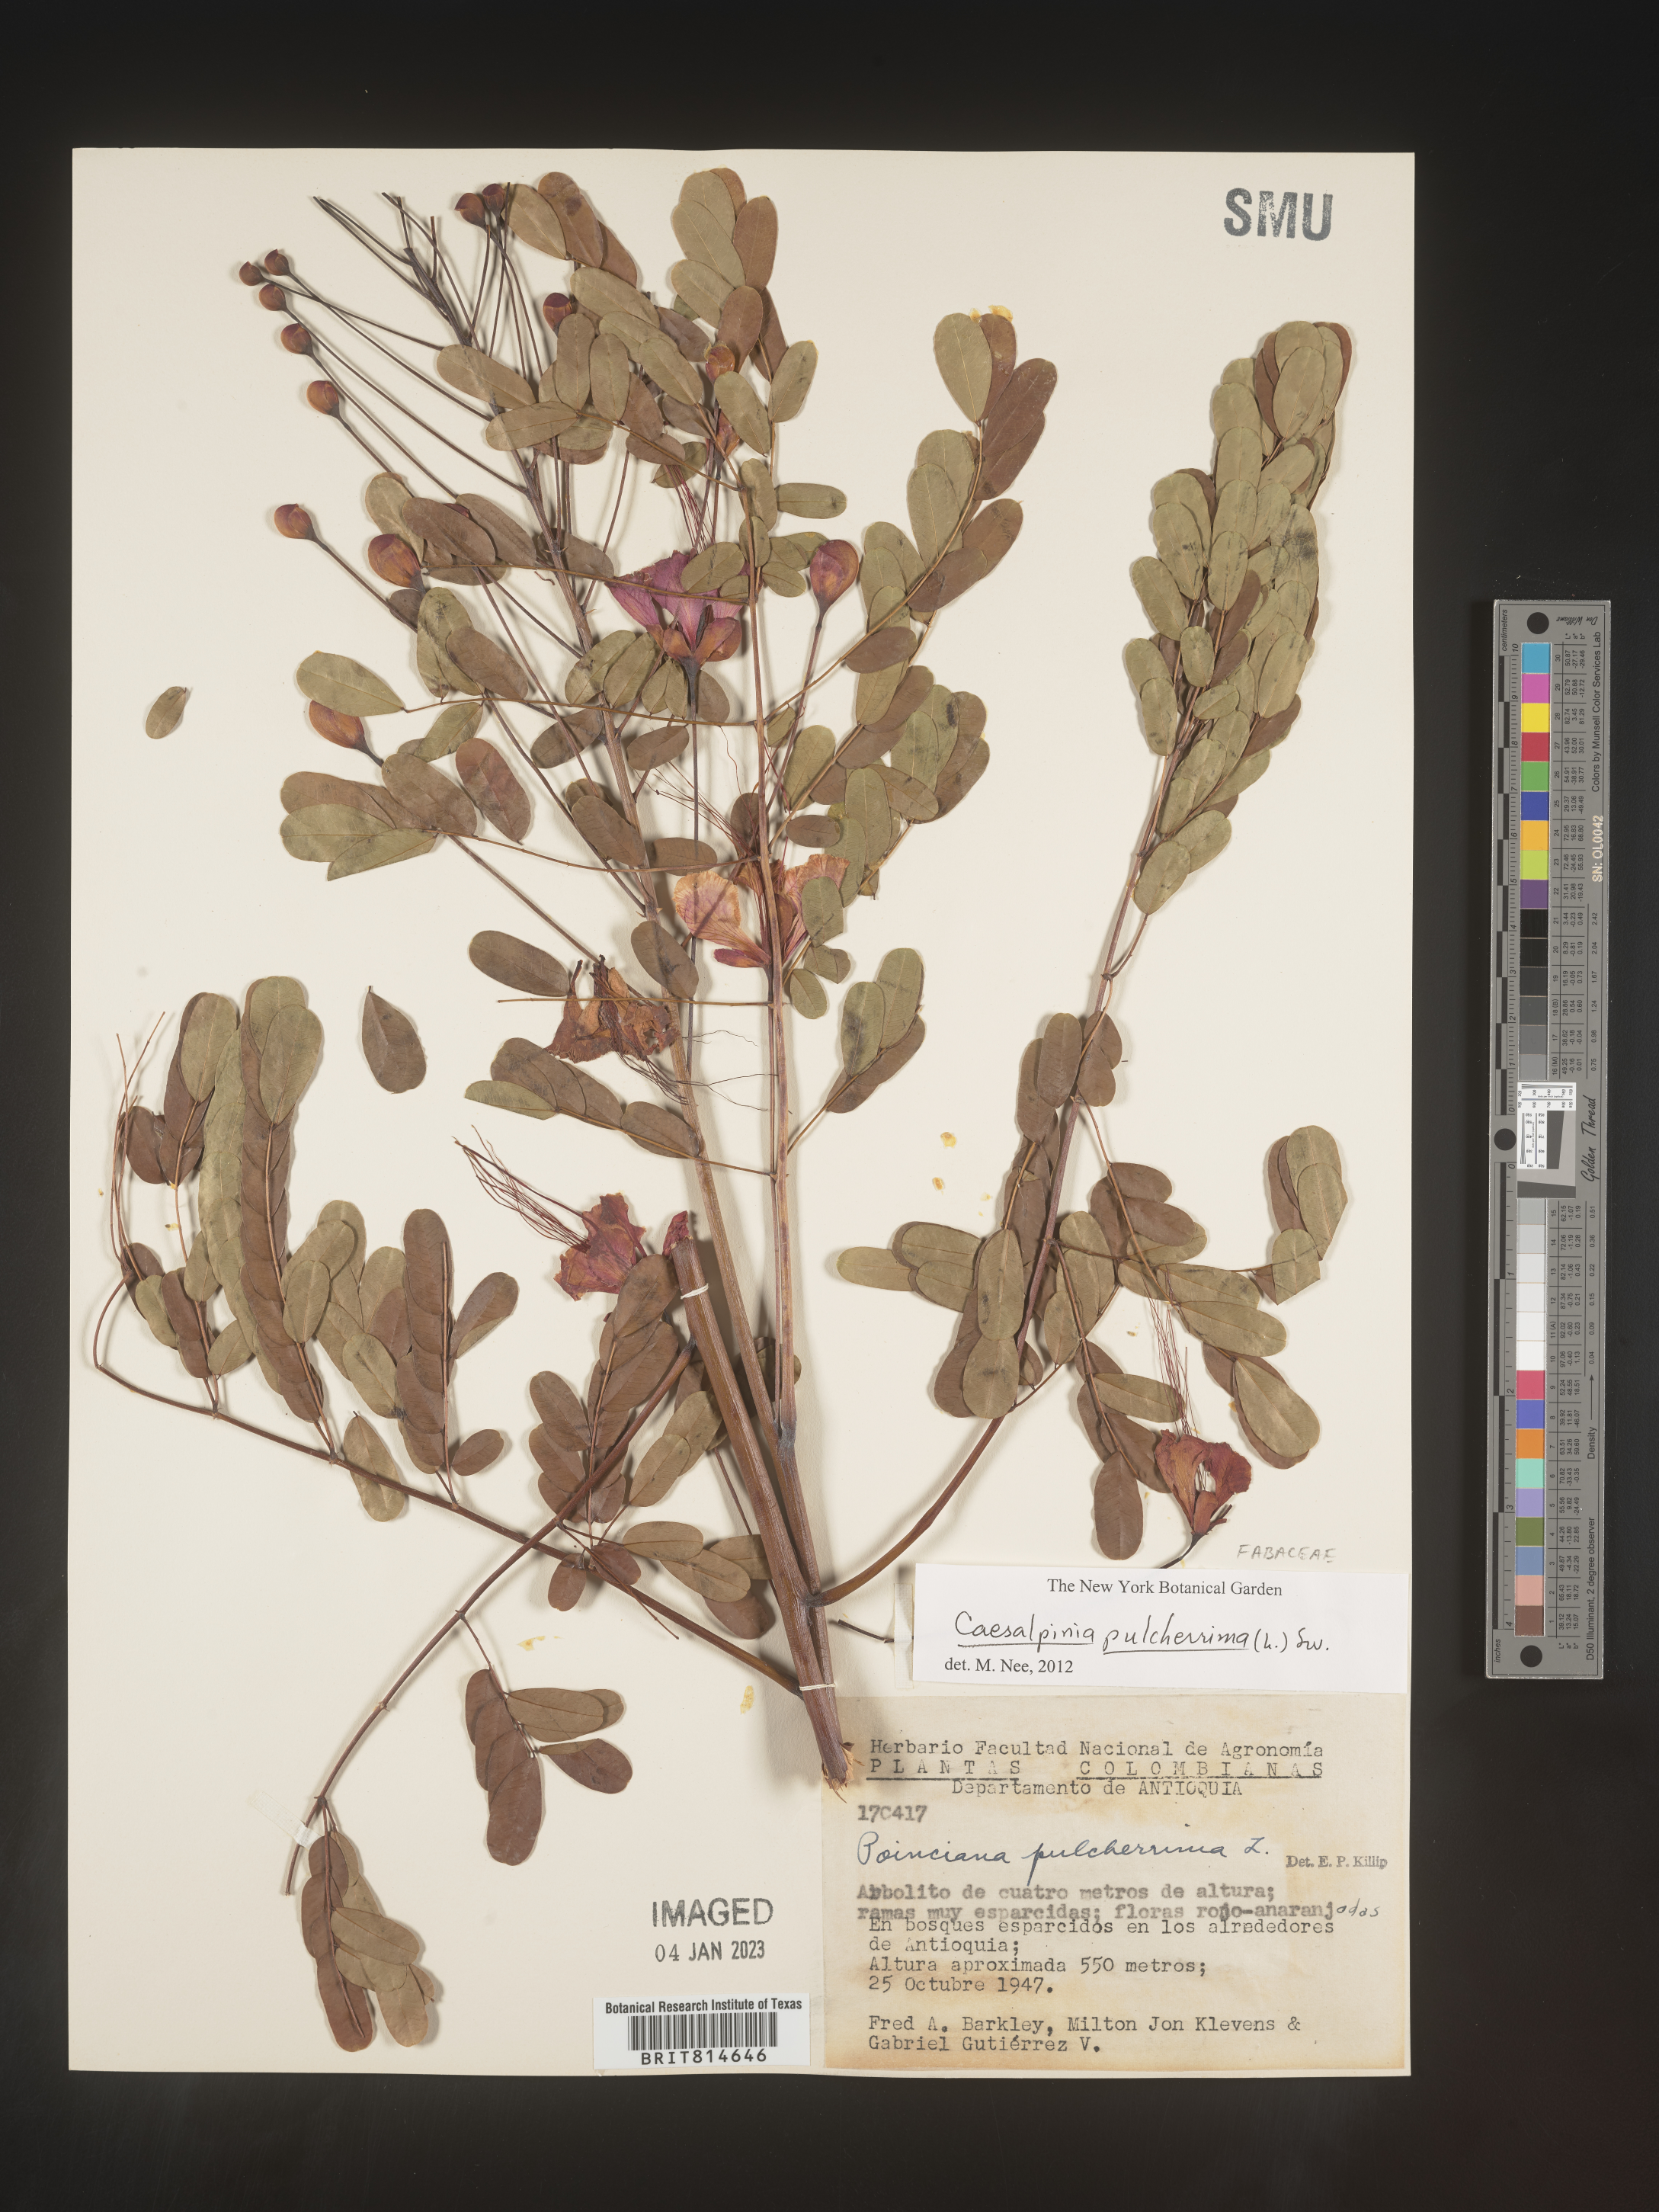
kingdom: Plantae
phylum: Tracheophyta
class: Magnoliopsida
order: Fabales
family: Fabaceae
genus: Caesalpinia
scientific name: Caesalpinia
